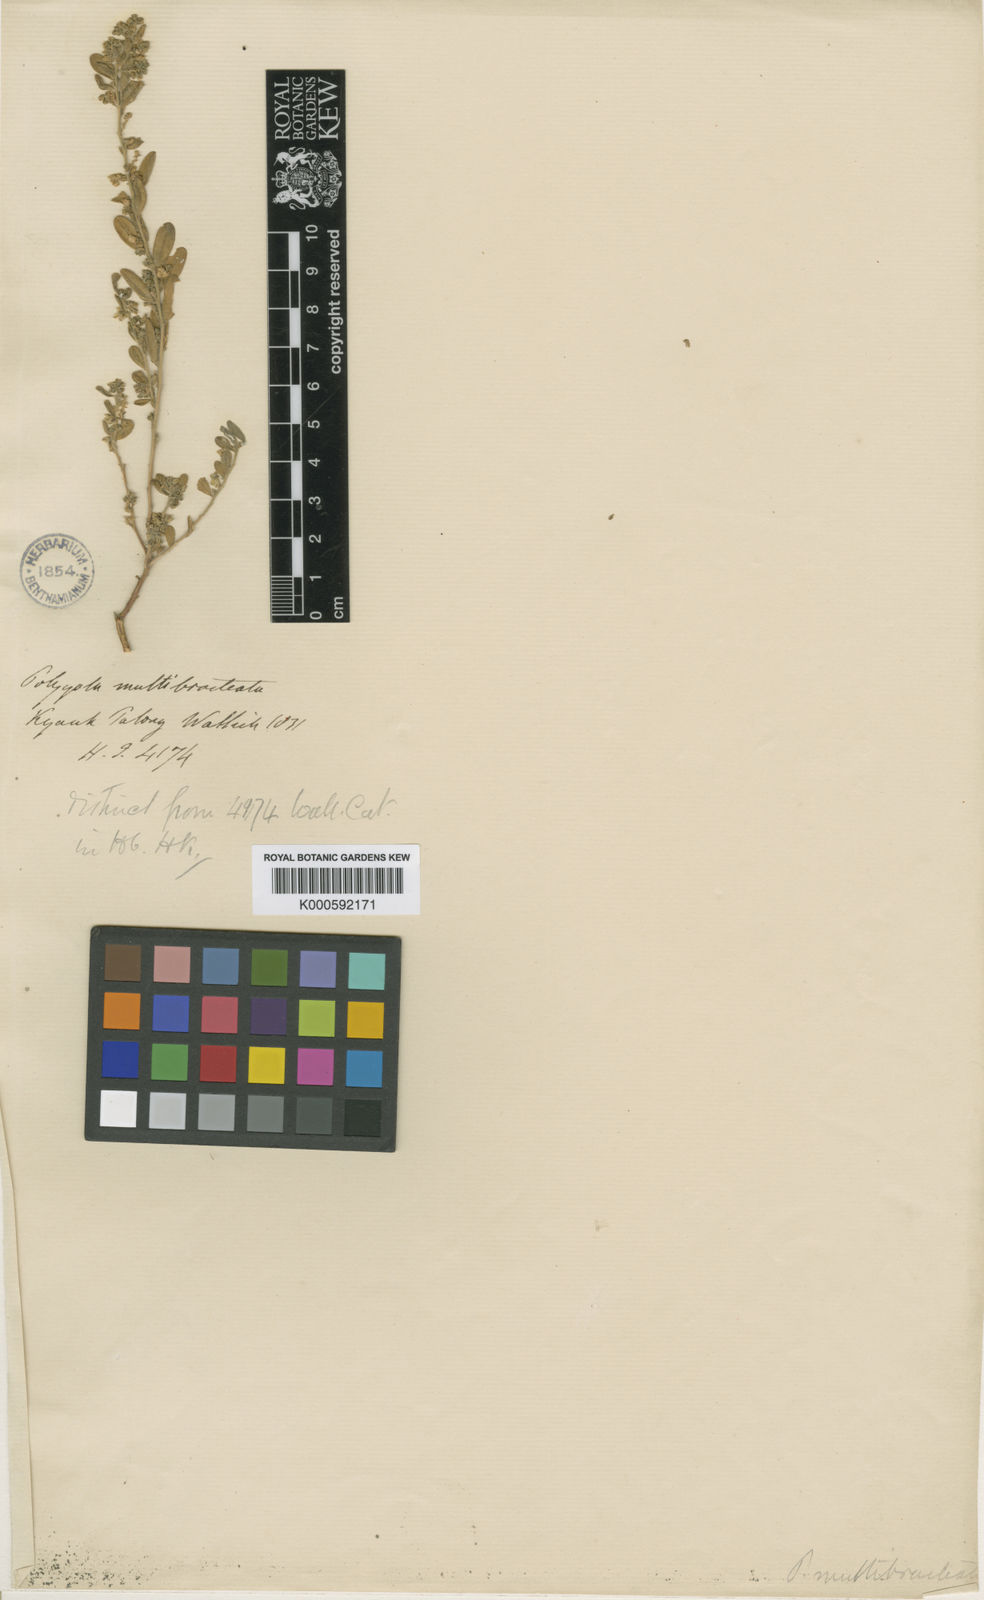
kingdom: Plantae
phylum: Tracheophyta
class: Magnoliopsida
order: Fabales
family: Polygalaceae
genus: Polygala
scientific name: Polygala glomerata
